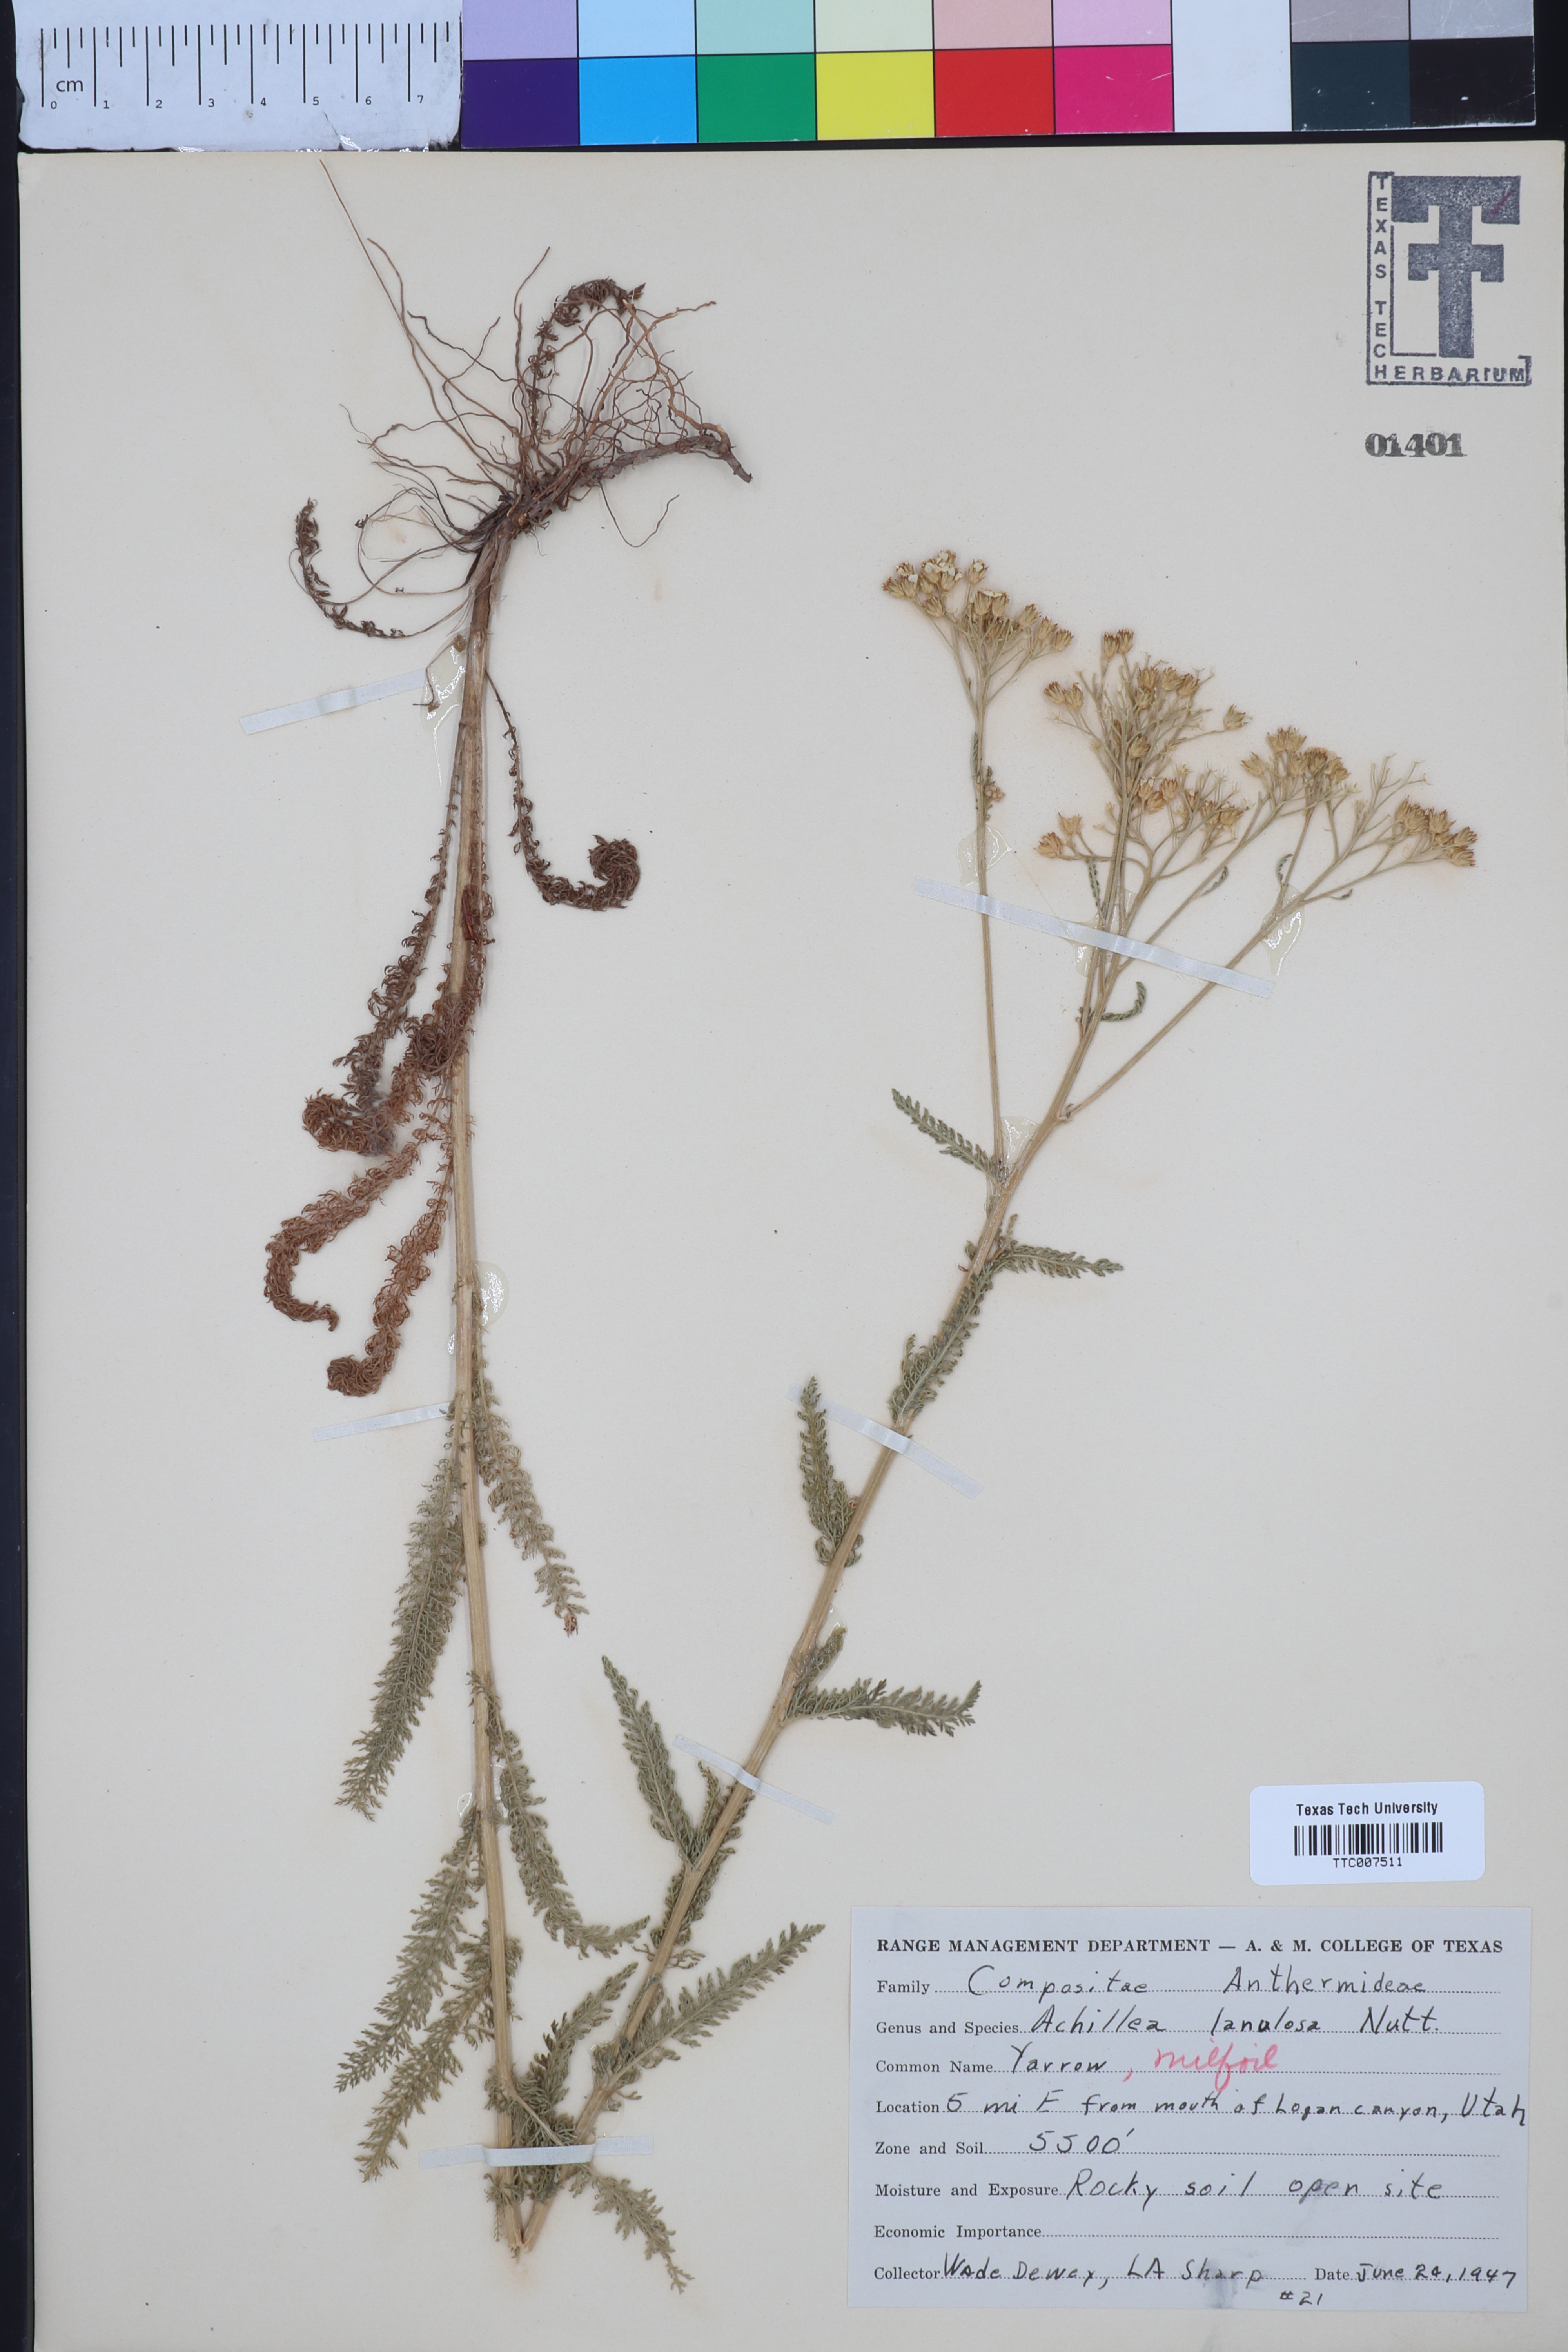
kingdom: Plantae
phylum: Tracheophyta
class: Magnoliopsida
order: Asterales
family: Asteraceae
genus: Achillea
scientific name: Achillea millefolium
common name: Yarrow
